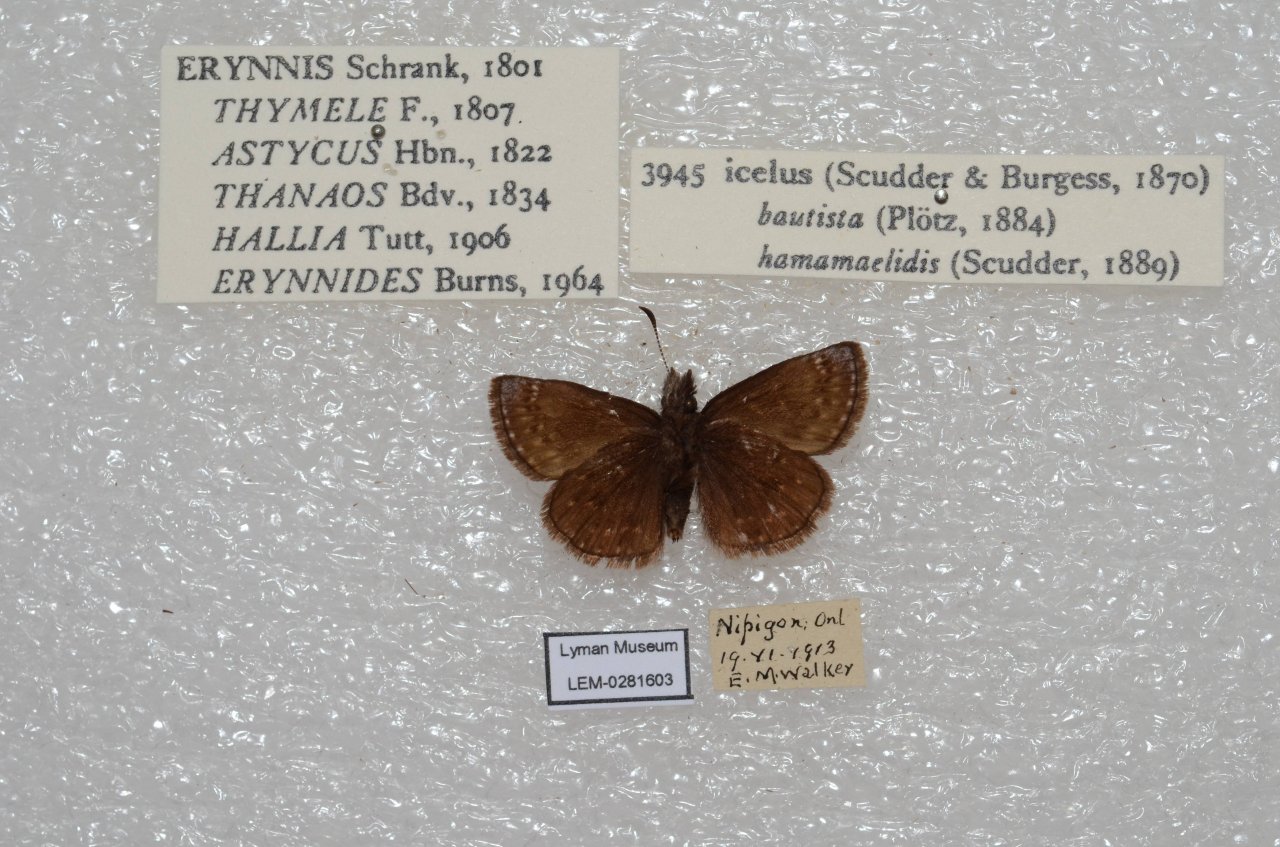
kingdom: Animalia
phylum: Arthropoda
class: Insecta
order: Lepidoptera
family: Hesperiidae
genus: Erynnis
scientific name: Erynnis icelus
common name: Dreamy Duskywing
